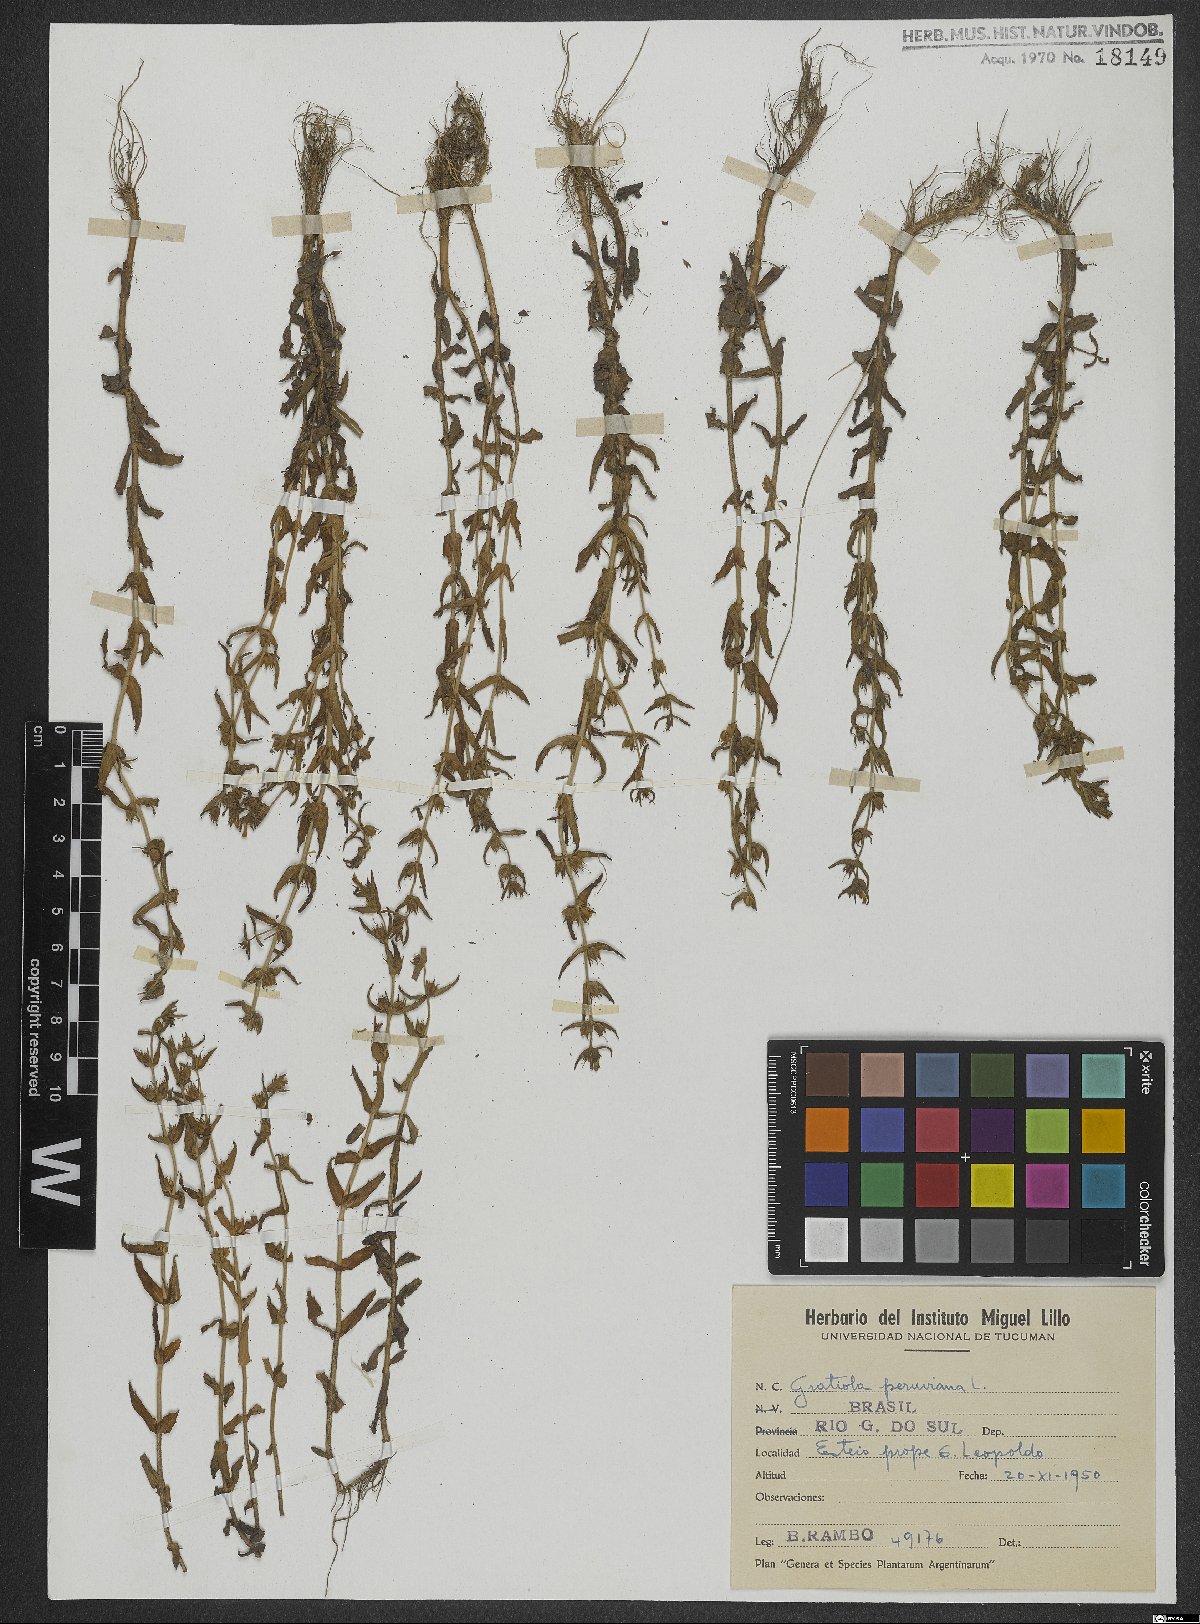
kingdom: Plantae
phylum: Tracheophyta
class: Magnoliopsida
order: Lamiales
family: Plantaginaceae
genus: Gratiola
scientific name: Gratiola peruviana
